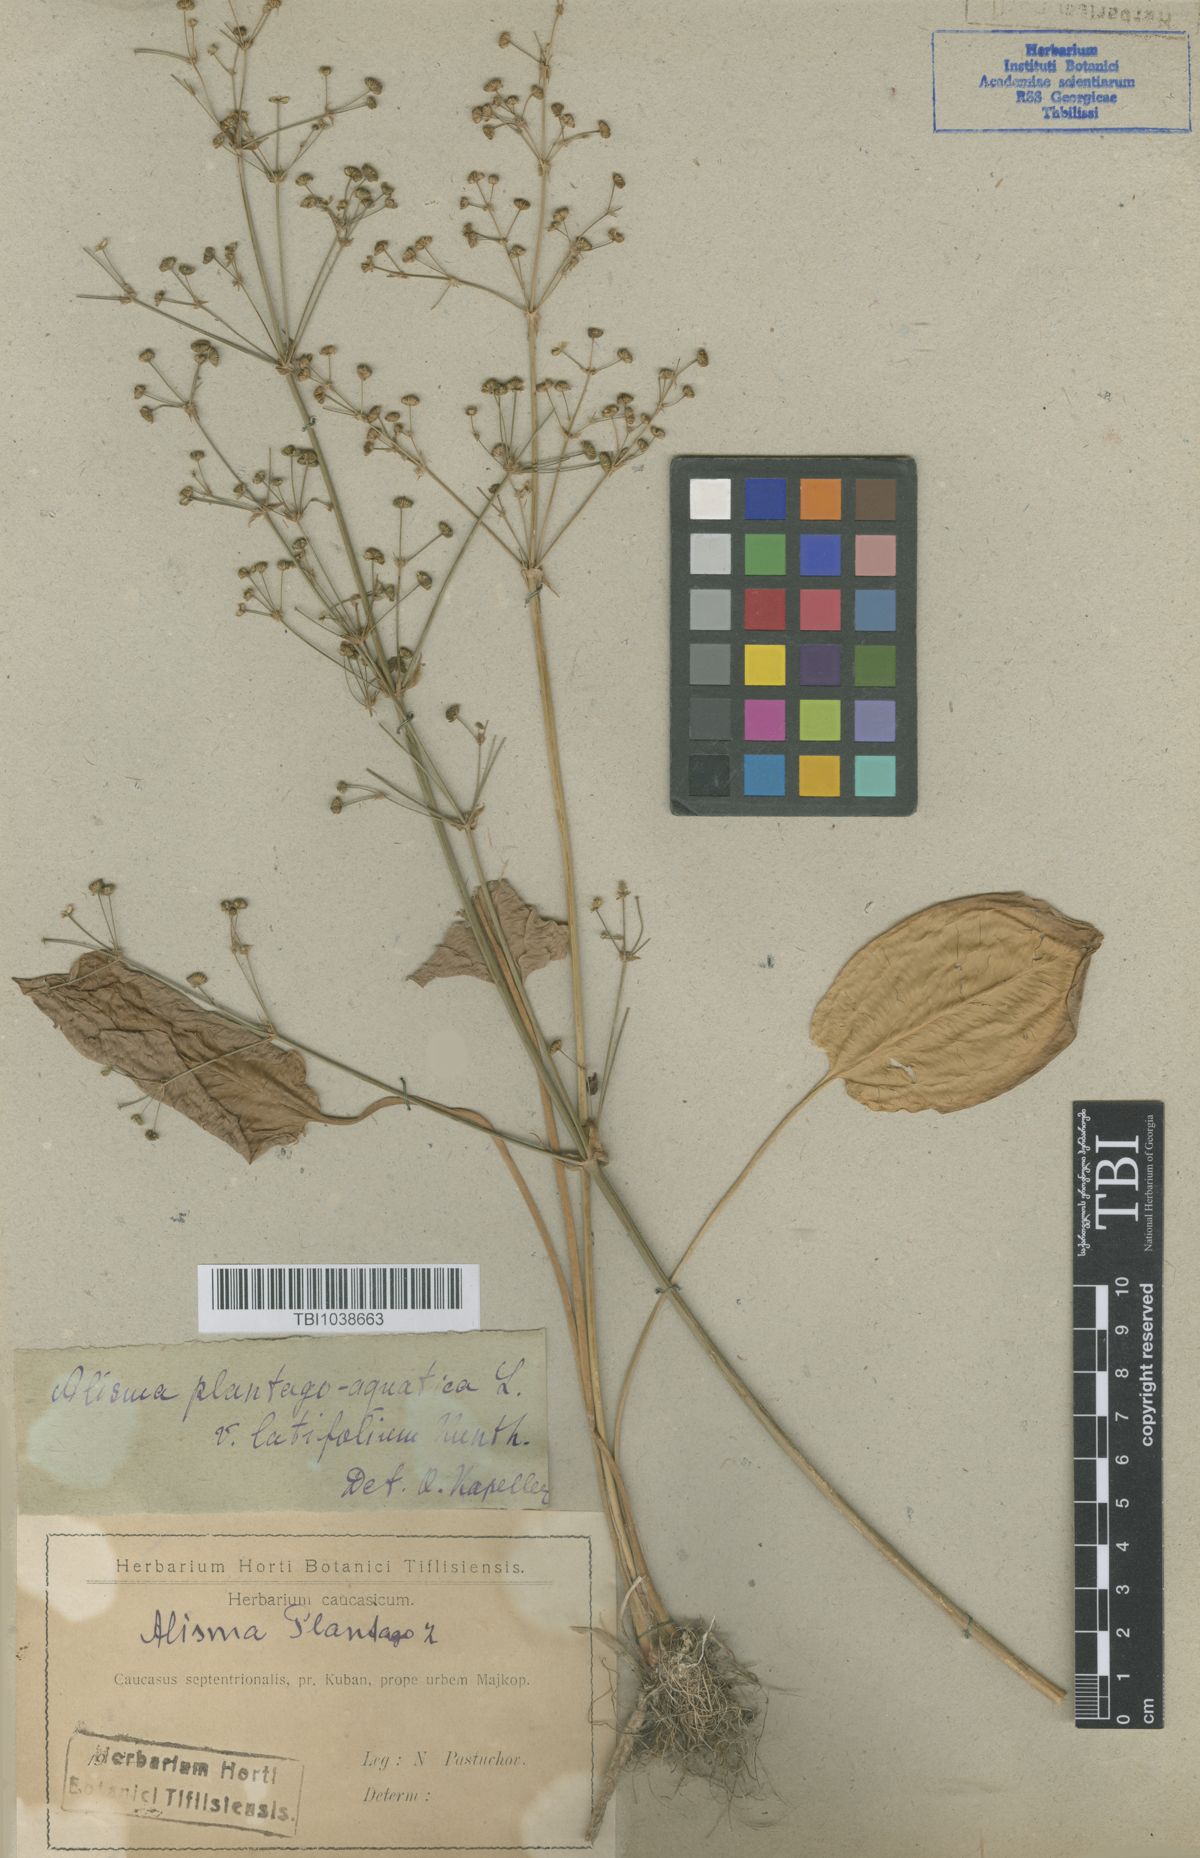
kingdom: Plantae
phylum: Tracheophyta
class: Liliopsida
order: Alismatales
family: Alismataceae
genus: Alisma
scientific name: Alisma plantago-aquatica
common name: Water-plantain
